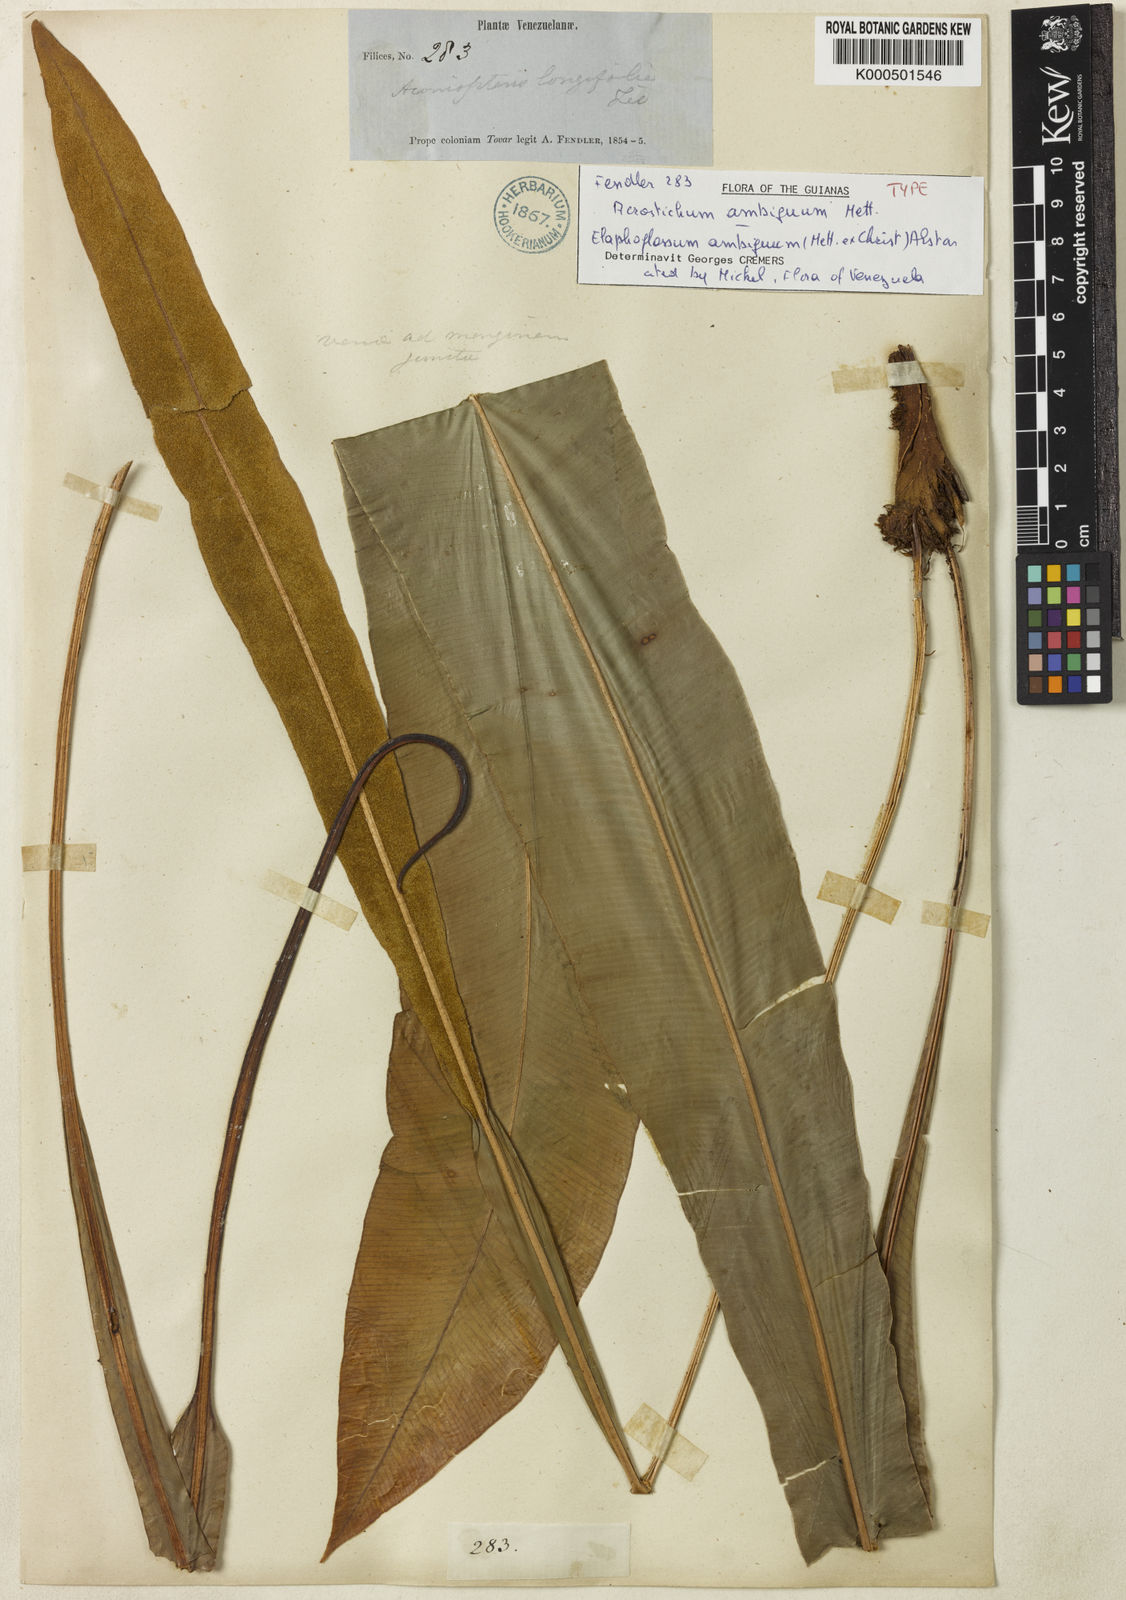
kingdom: Plantae
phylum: Tracheophyta
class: Polypodiopsida
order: Polypodiales
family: Dryopteridaceae
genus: Elaphoglossum
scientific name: Elaphoglossum ambiguum
